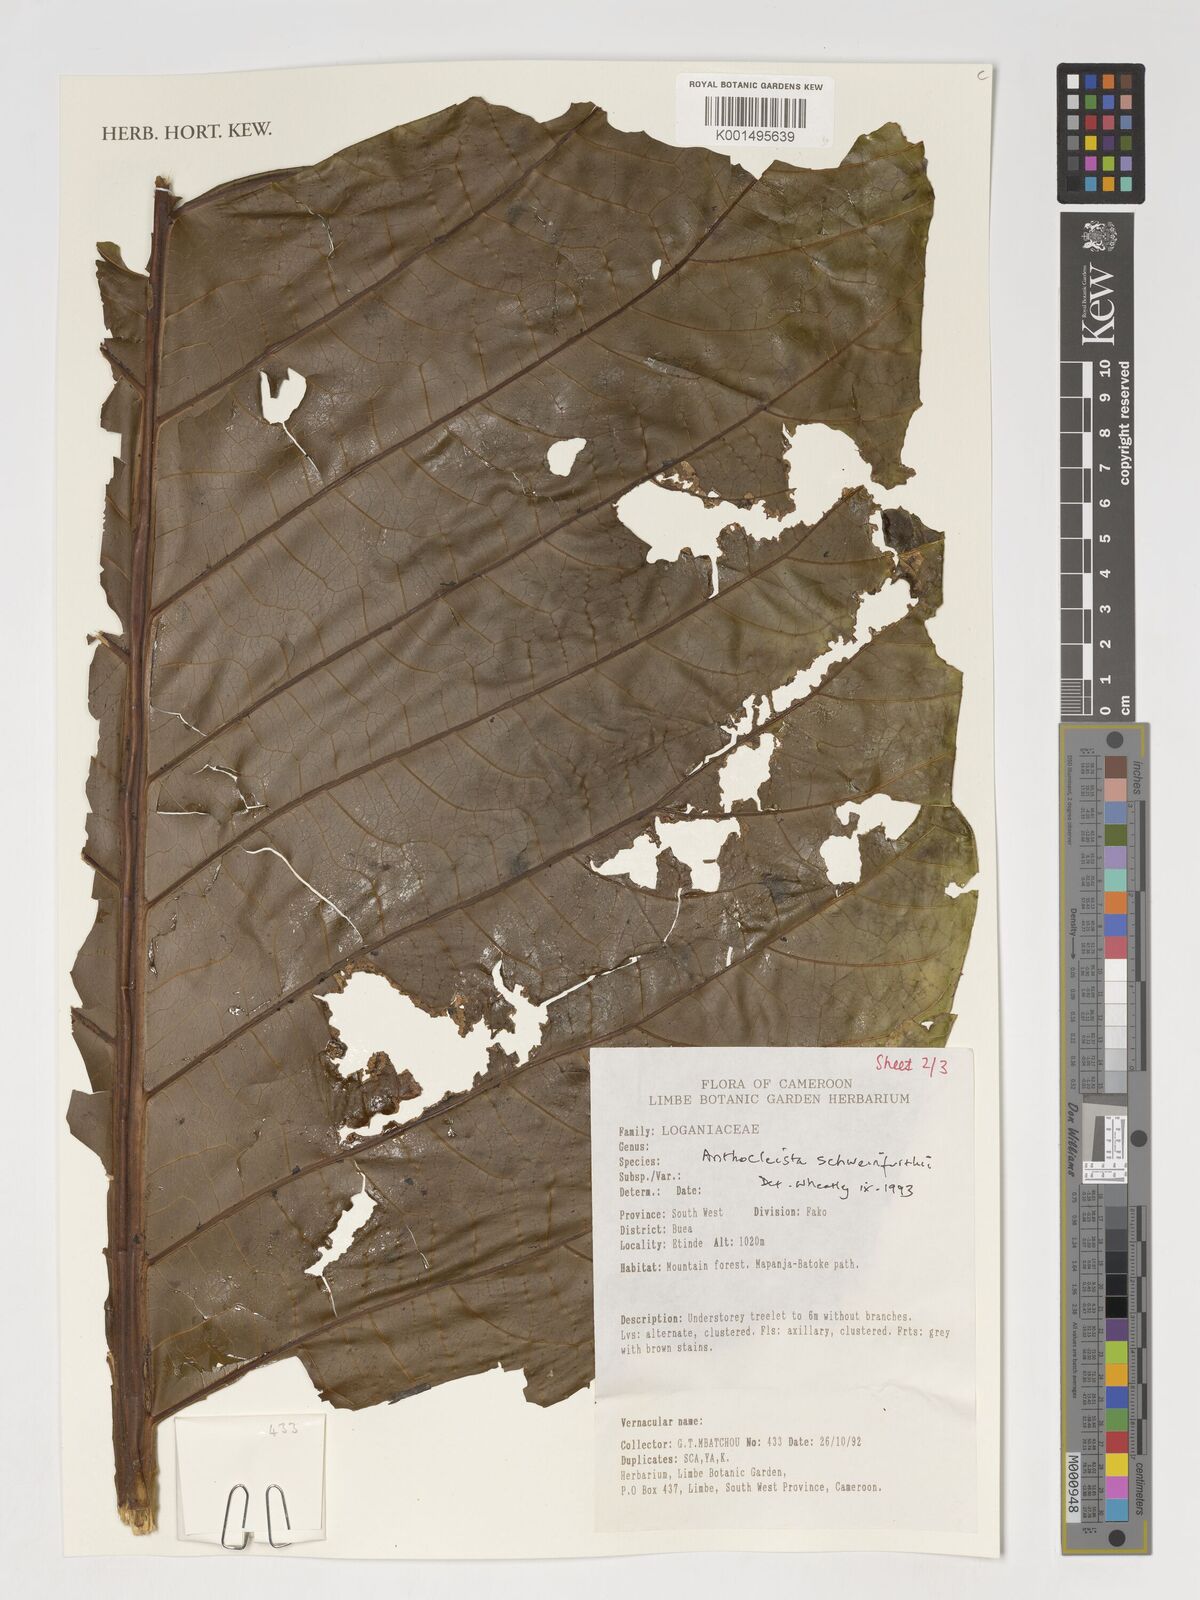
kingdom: Plantae
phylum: Tracheophyta
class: Magnoliopsida
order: Gentianales
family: Gentianaceae
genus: Anthocleista
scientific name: Anthocleista schweinfurthii
